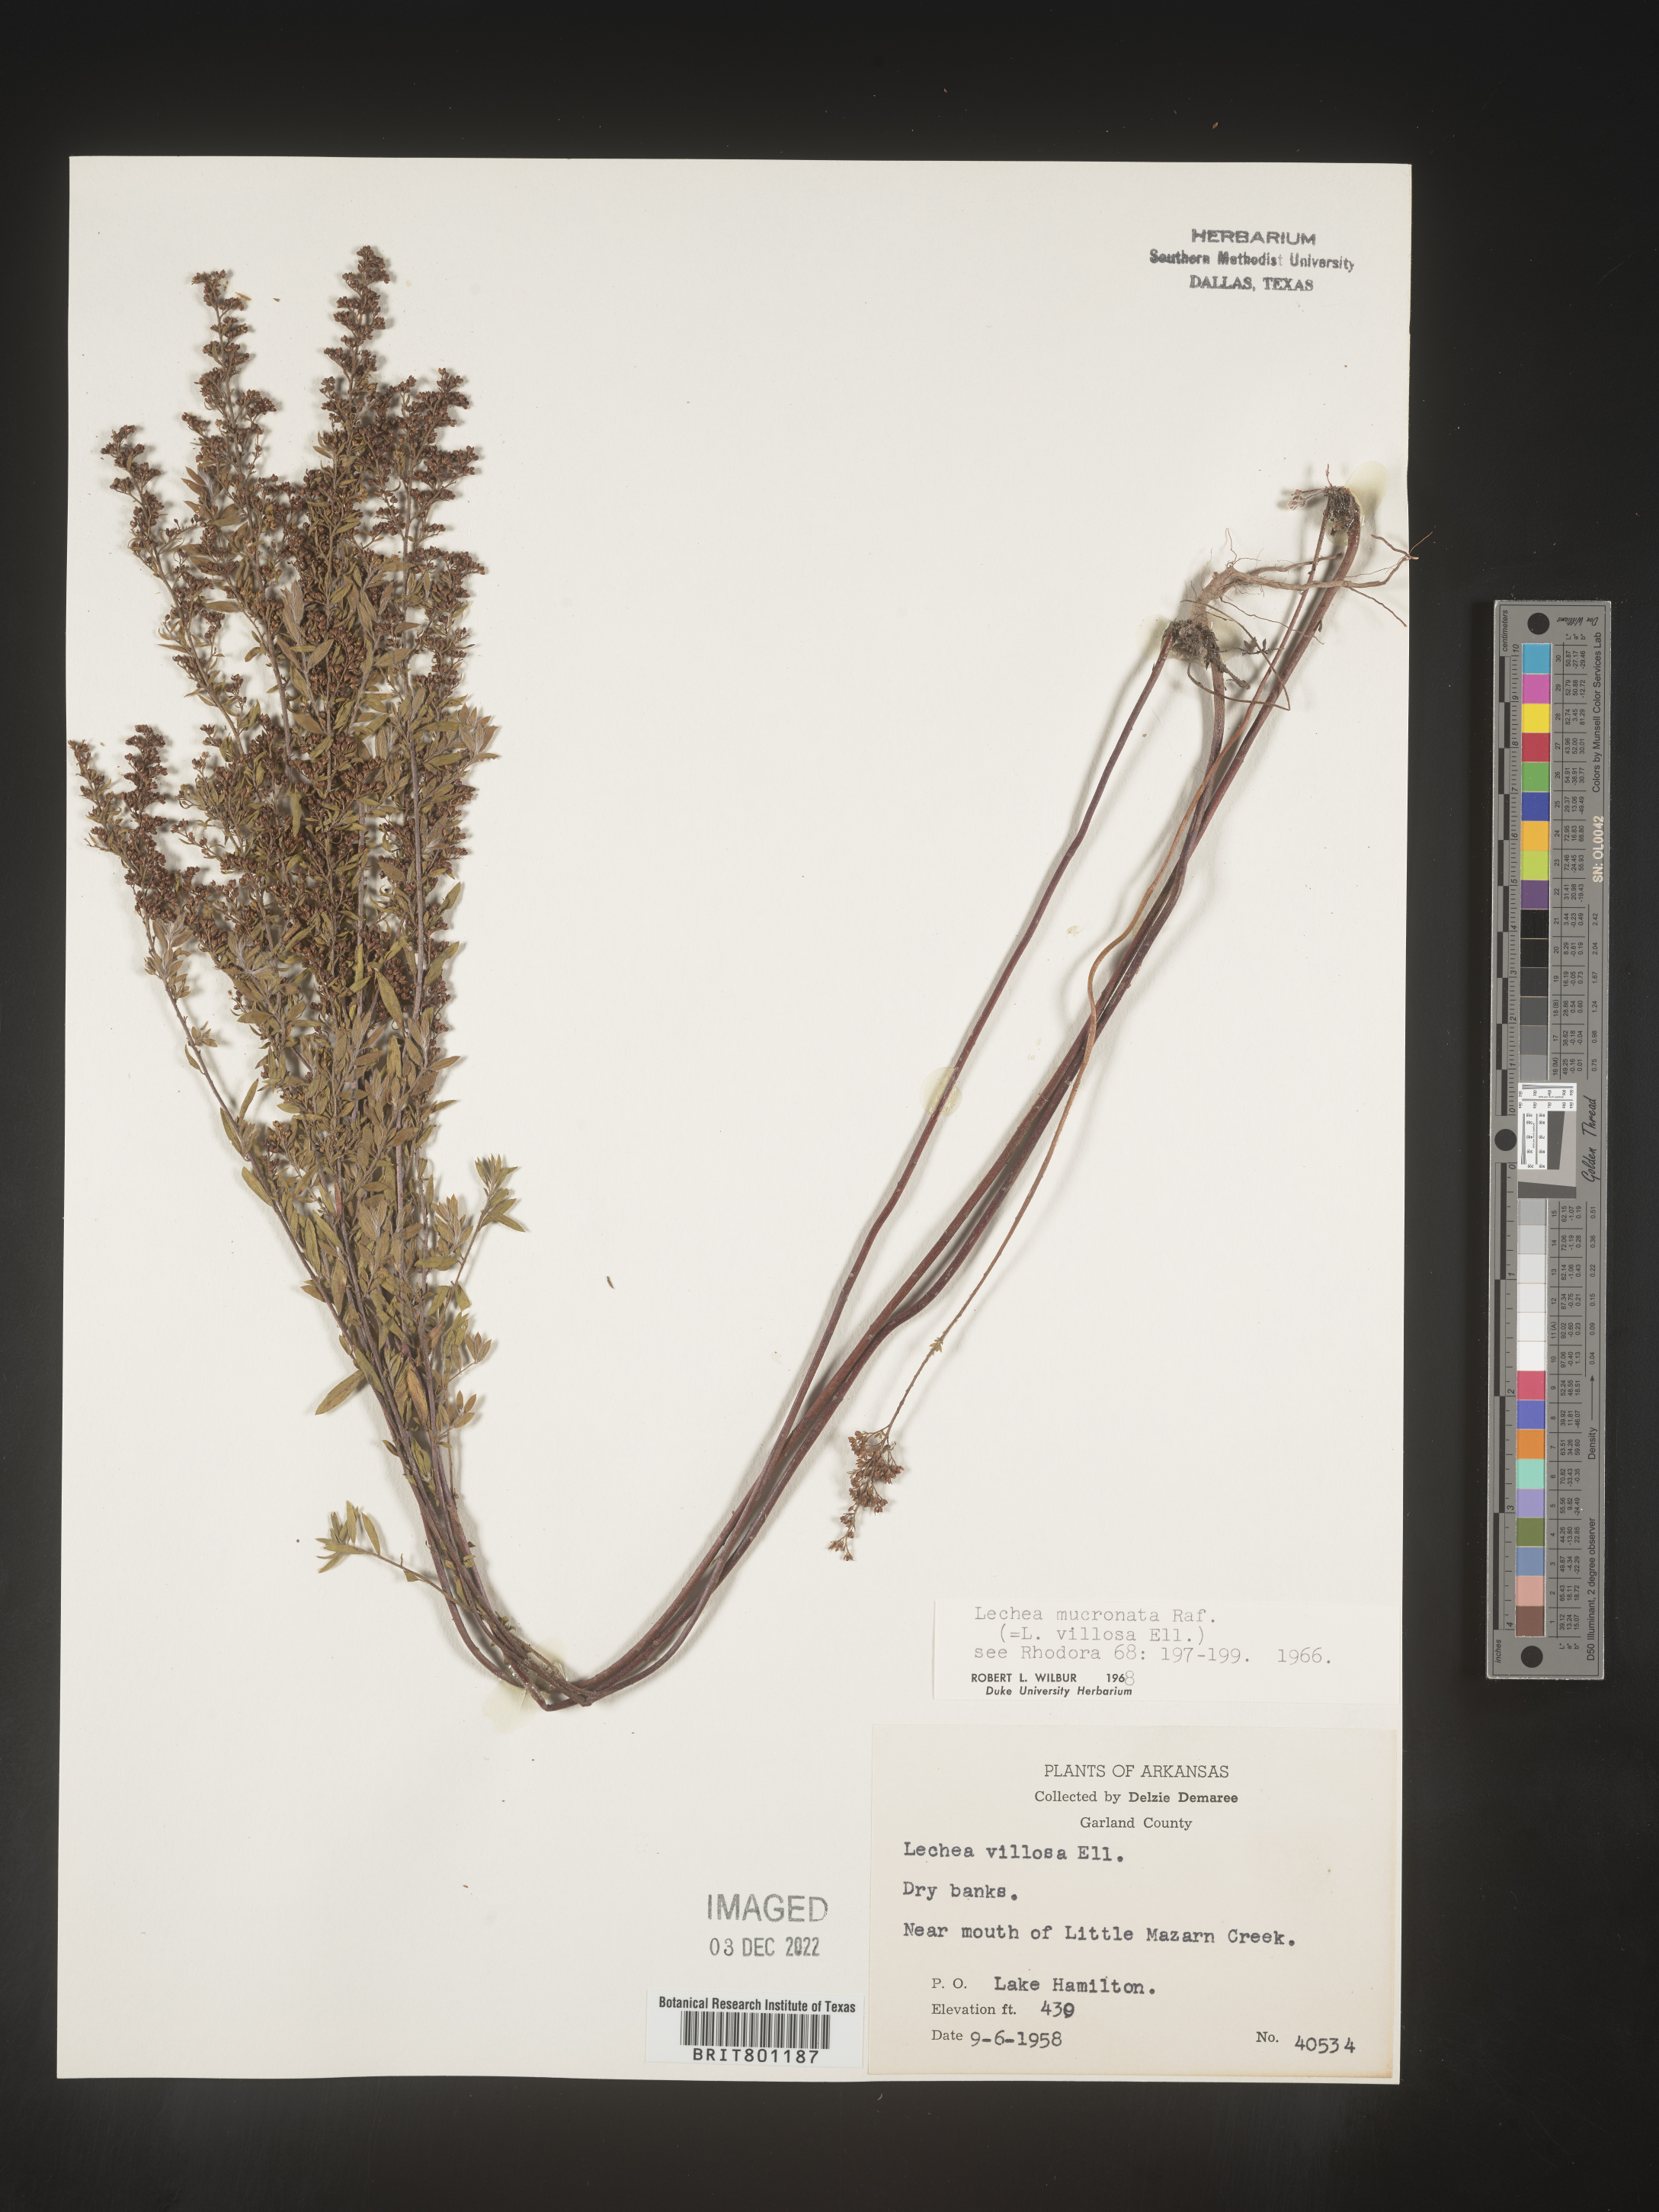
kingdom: Plantae
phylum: Tracheophyta
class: Magnoliopsida
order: Malvales
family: Cistaceae
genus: Lechea
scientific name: Lechea mucronata
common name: Hairy pinweed
